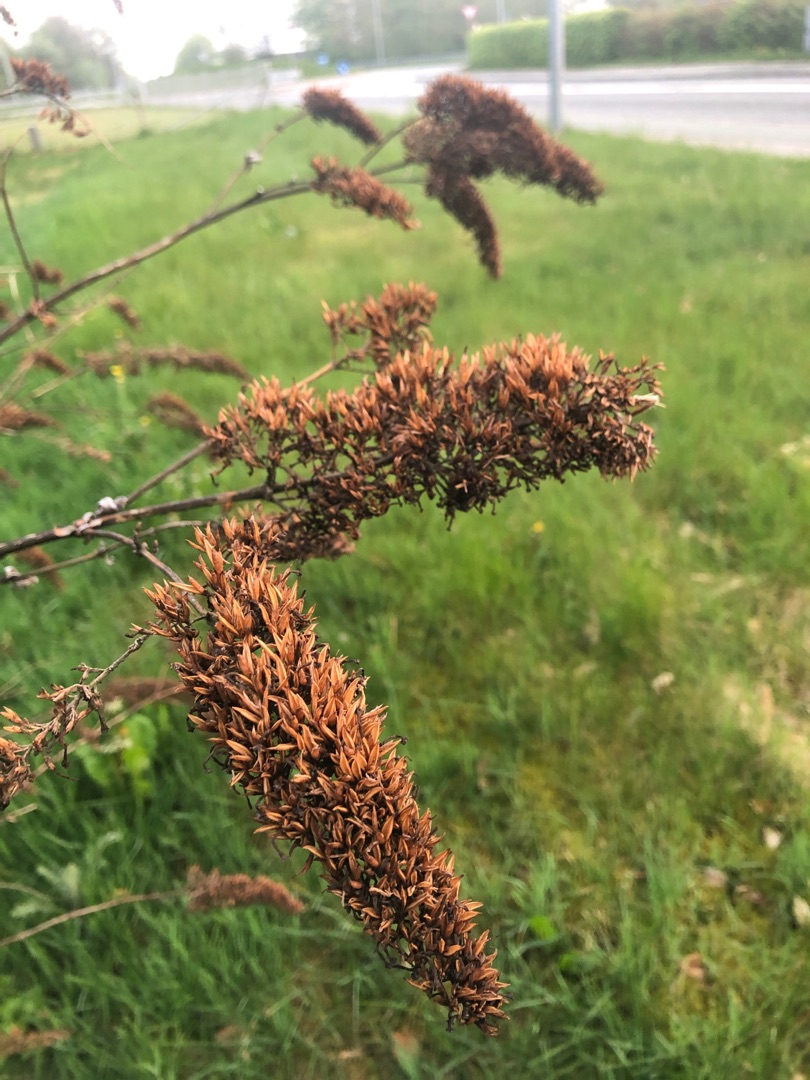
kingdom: Plantae
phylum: Tracheophyta
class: Magnoliopsida
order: Lamiales
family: Scrophulariaceae
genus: Buddleja
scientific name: Buddleja davidii
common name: Sommerfuglebusk
